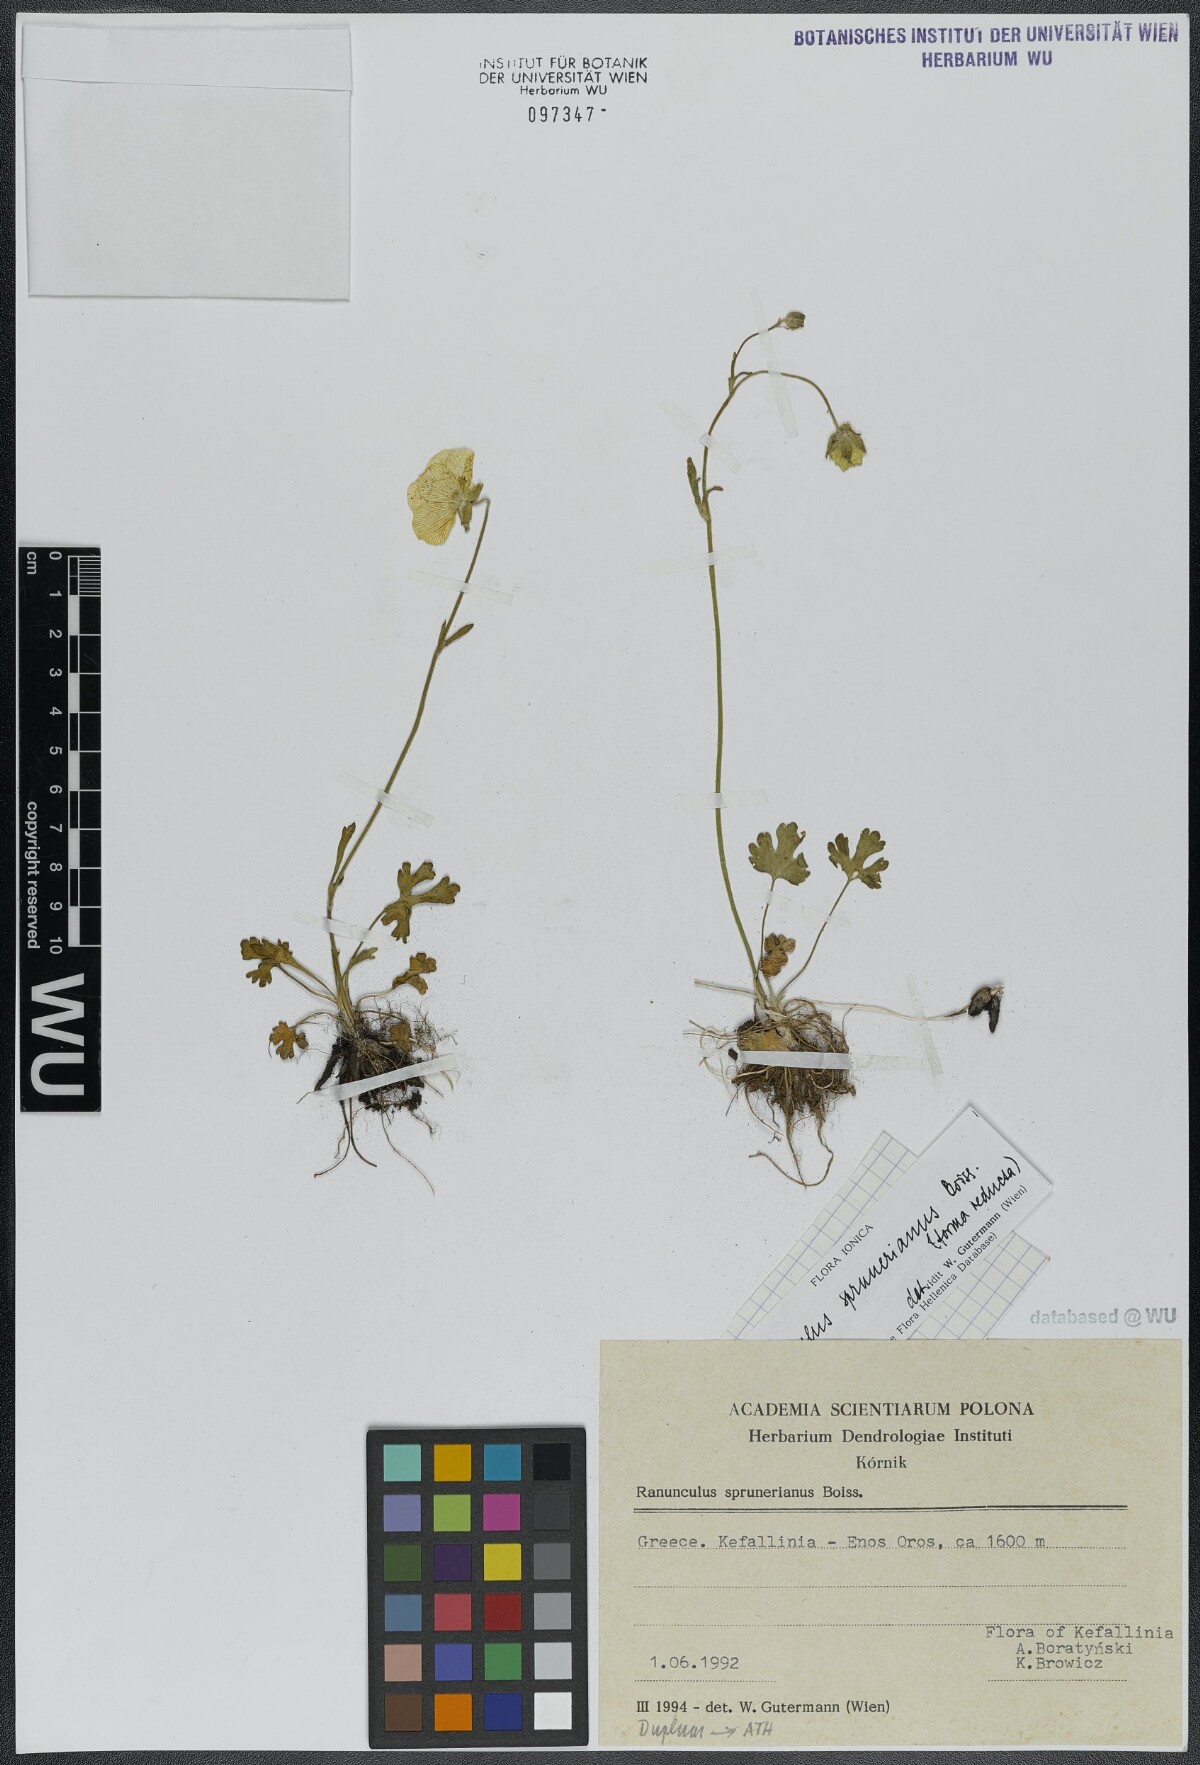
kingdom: Plantae
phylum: Tracheophyta
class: Magnoliopsida
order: Ranunculales
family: Ranunculaceae
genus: Ranunculus
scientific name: Ranunculus sprunerianus
